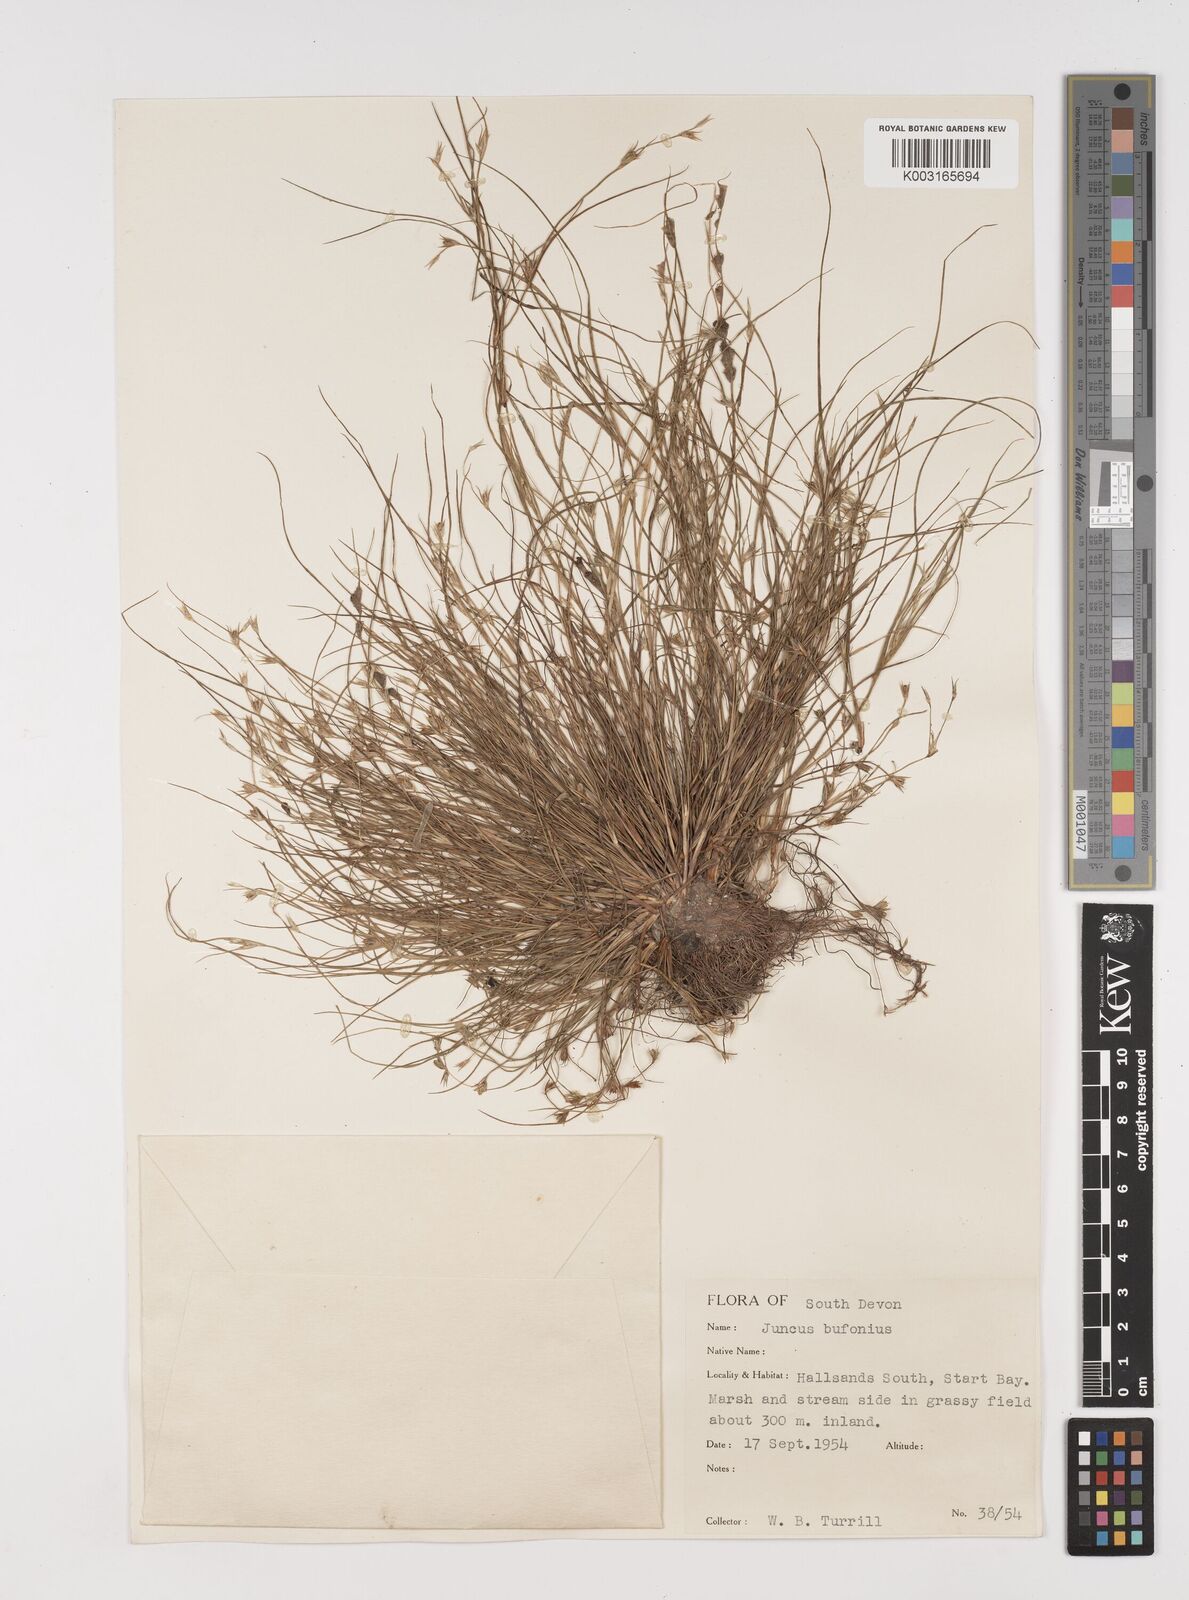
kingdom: Plantae
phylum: Tracheophyta
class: Liliopsida
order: Poales
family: Juncaceae
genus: Juncus
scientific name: Juncus bufonius
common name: Toad rush
